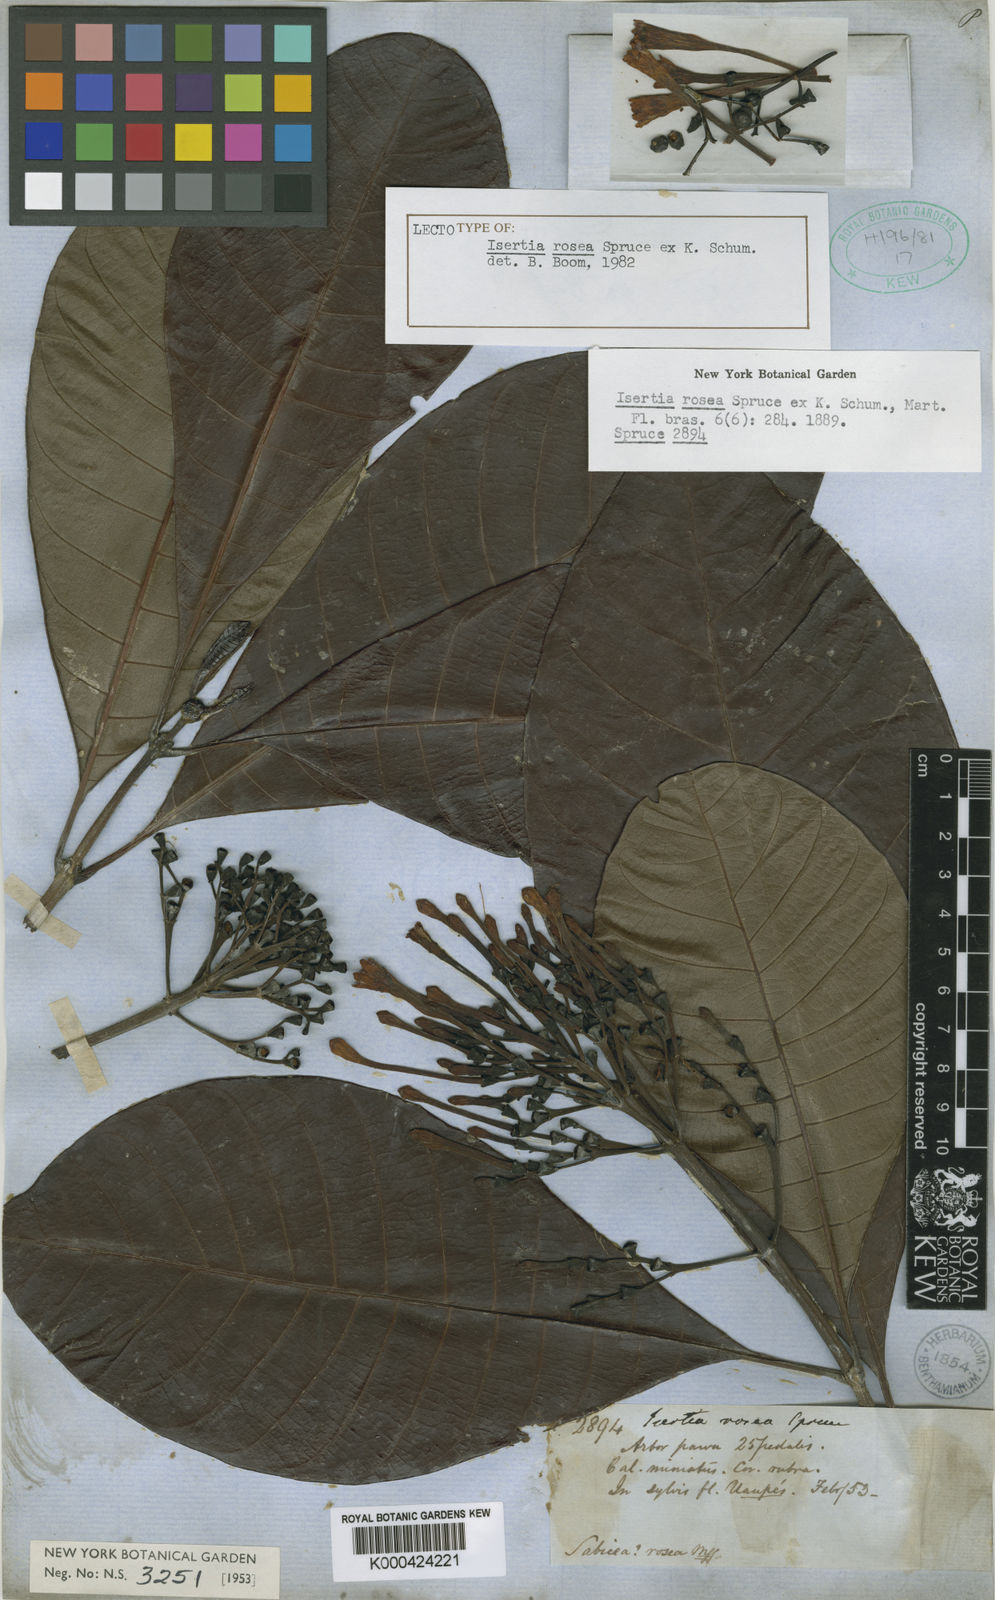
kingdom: Plantae
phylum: Tracheophyta
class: Magnoliopsida
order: Gentianales
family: Rubiaceae
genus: Isertia
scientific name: Isertia rosea
